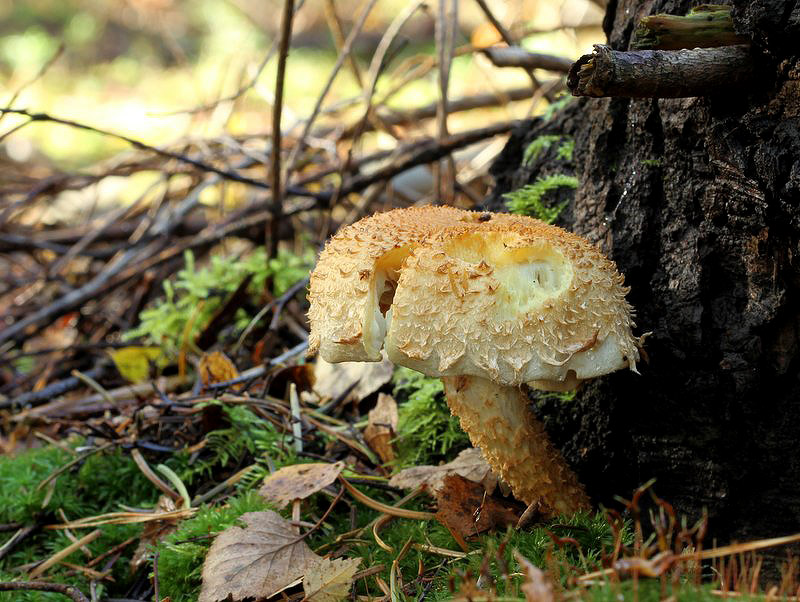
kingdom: Fungi
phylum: Basidiomycota
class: Agaricomycetes
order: Agaricales
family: Strophariaceae
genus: Pholiota
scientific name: Pholiota squarrosa
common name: krumskællet skælhat
